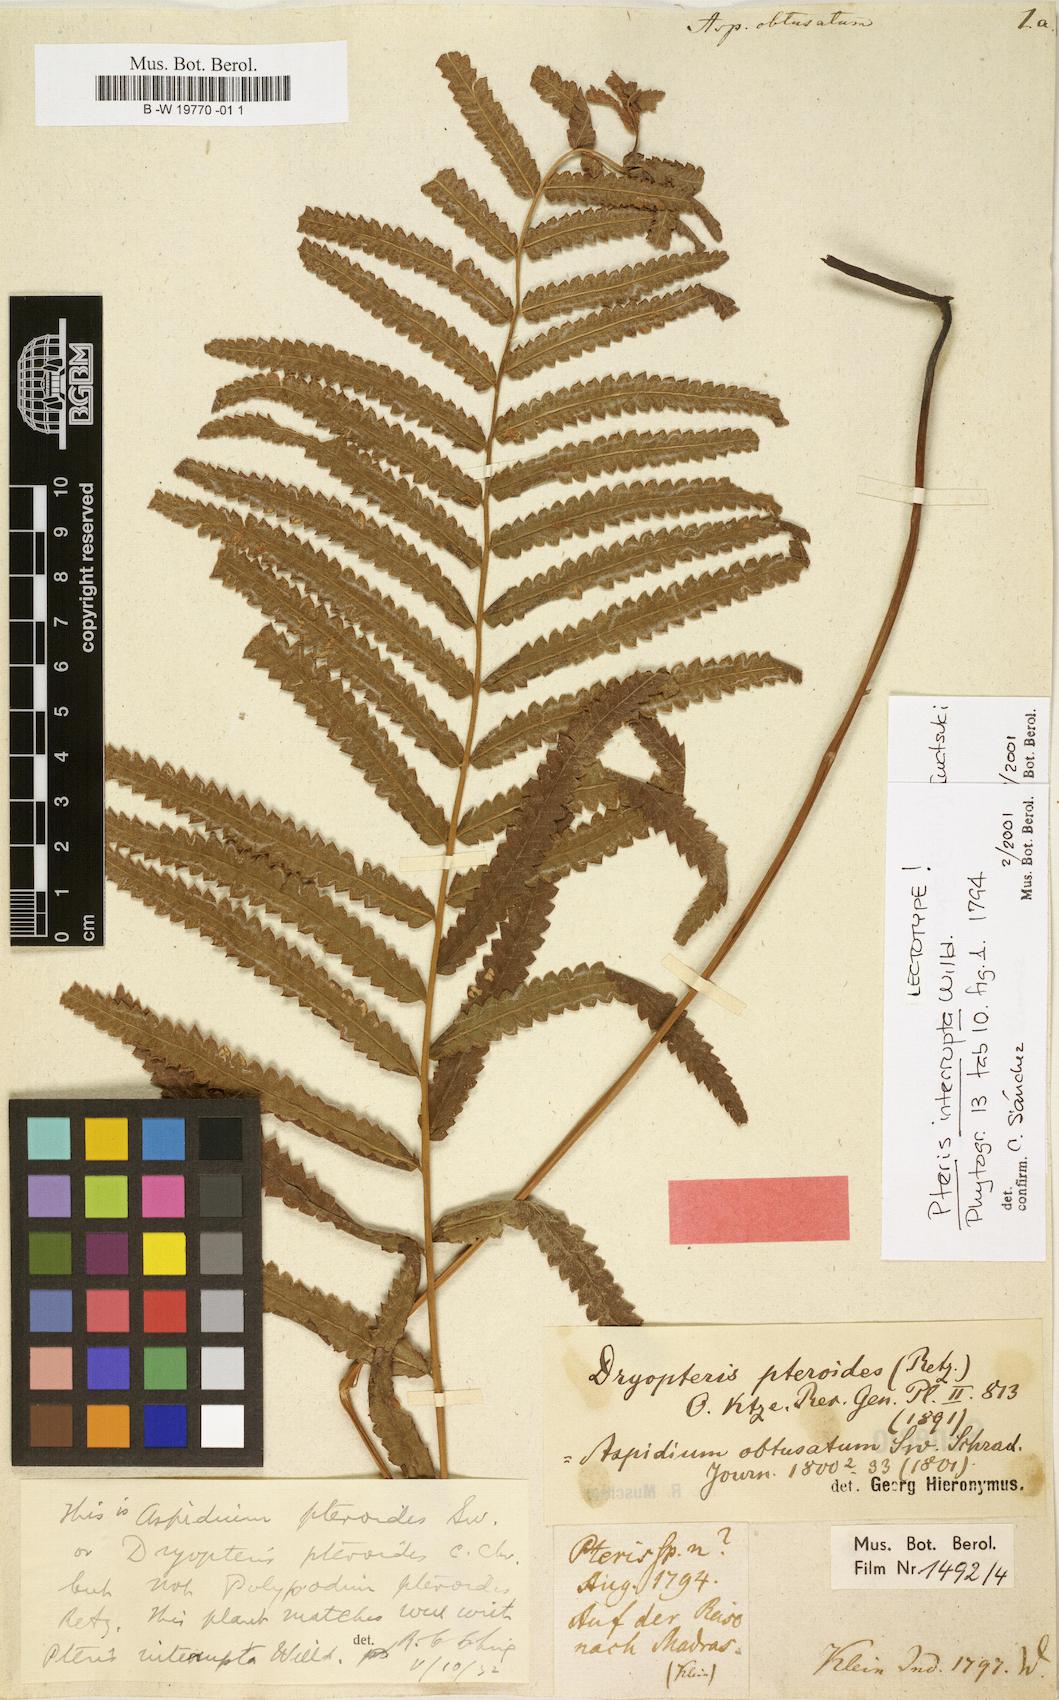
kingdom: Plantae
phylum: Tracheophyta
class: Polypodiopsida
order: Polypodiales
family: Thelypteridaceae
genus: Cyclosorus
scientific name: Cyclosorus interruptus
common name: Neke fern
